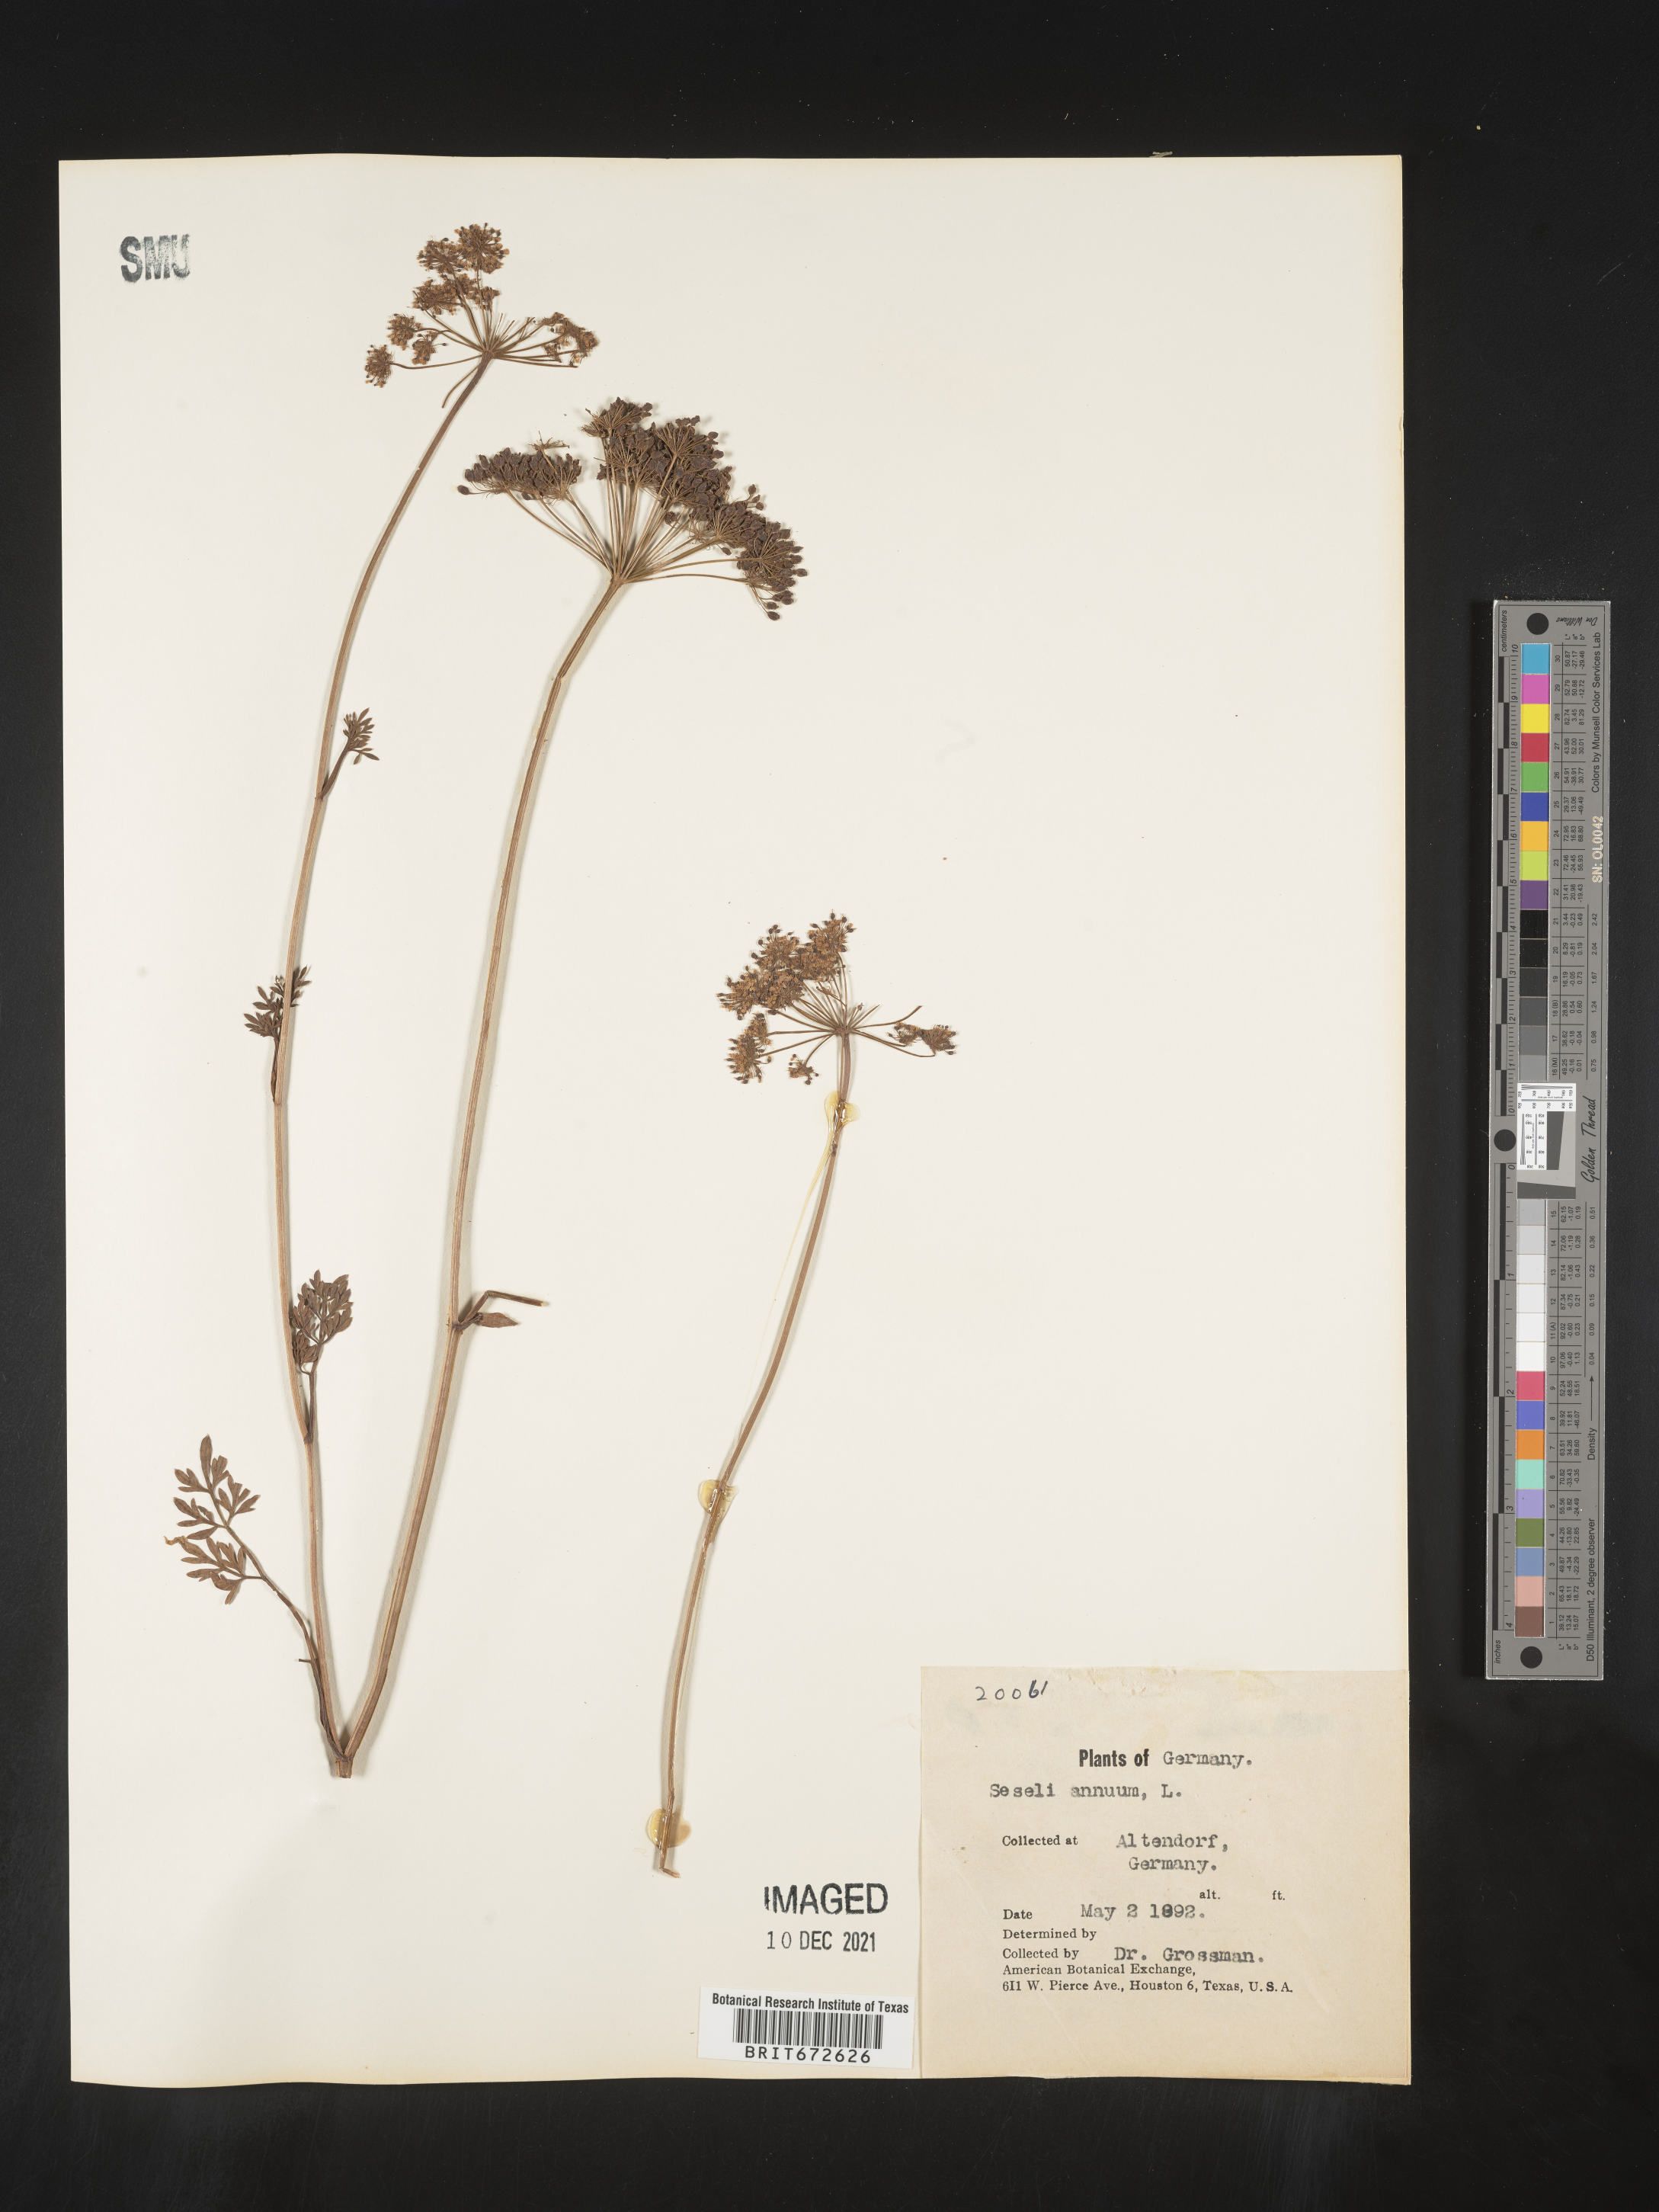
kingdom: Plantae
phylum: Tracheophyta
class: Magnoliopsida
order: Apiales
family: Apiaceae
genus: Seseli
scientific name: Seseli
